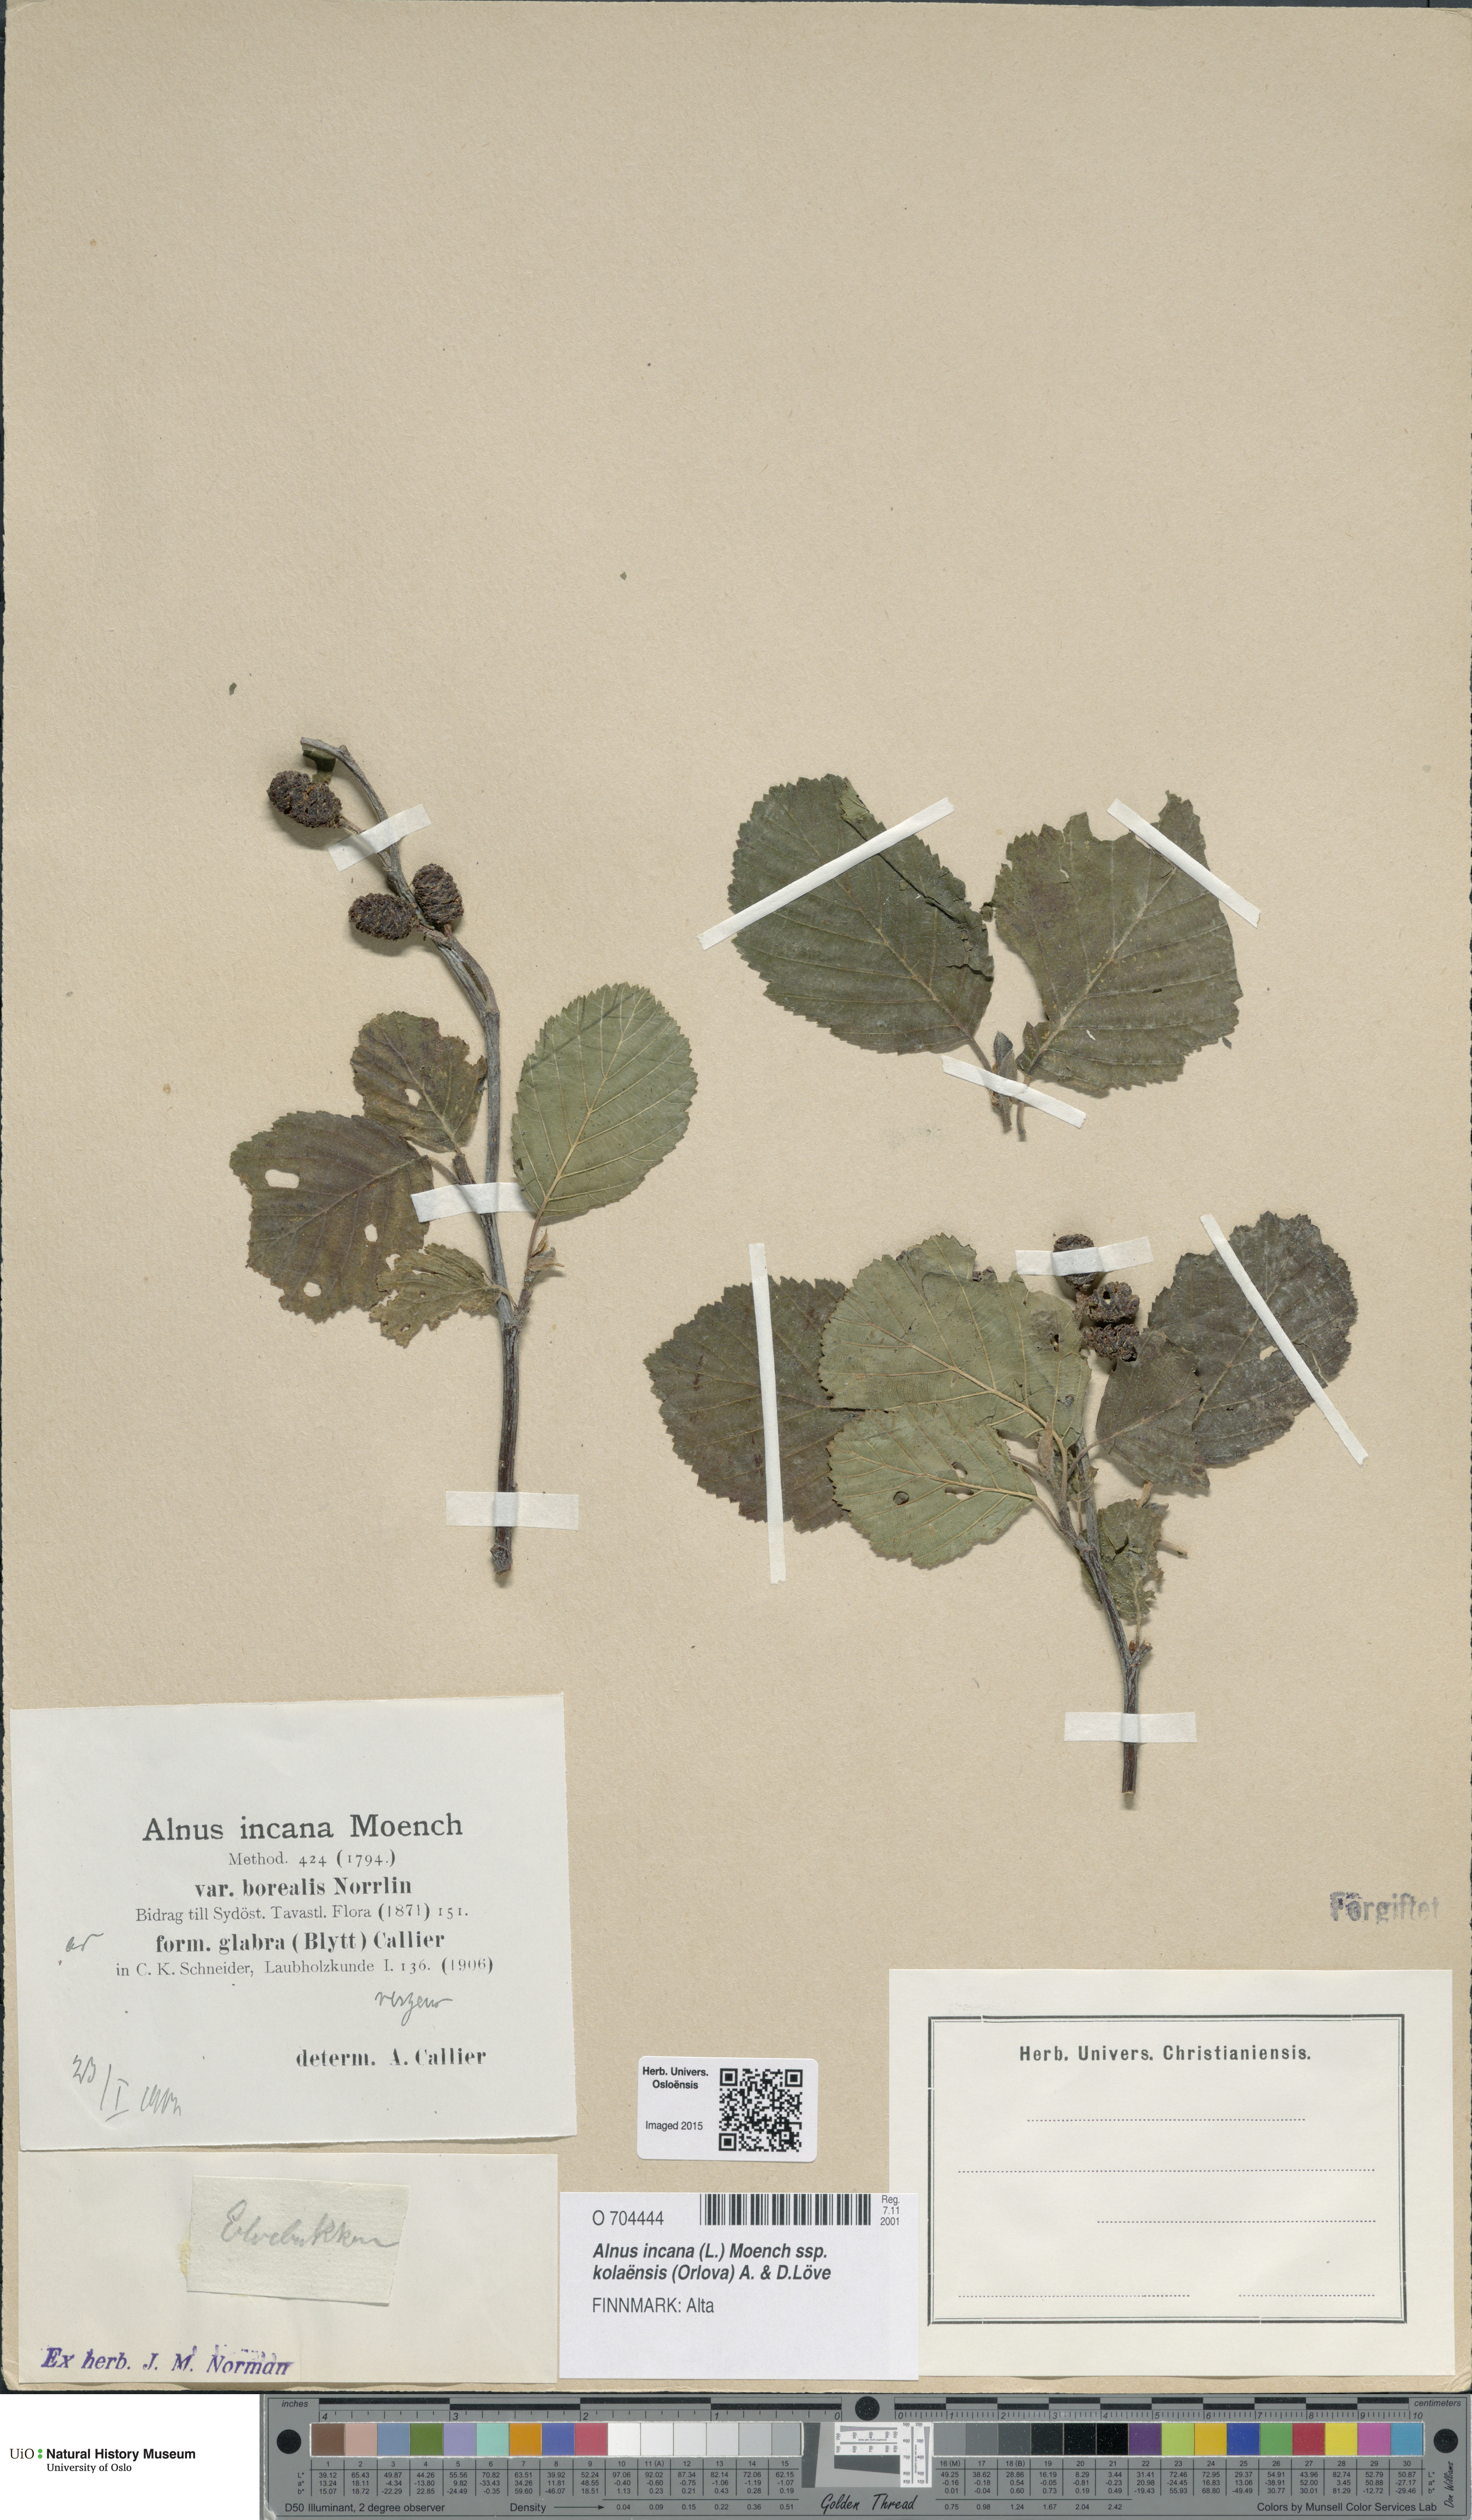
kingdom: Plantae
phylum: Tracheophyta
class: Magnoliopsida
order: Fagales
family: Betulaceae
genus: Alnus
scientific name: Alnus incana
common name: Grey alder
